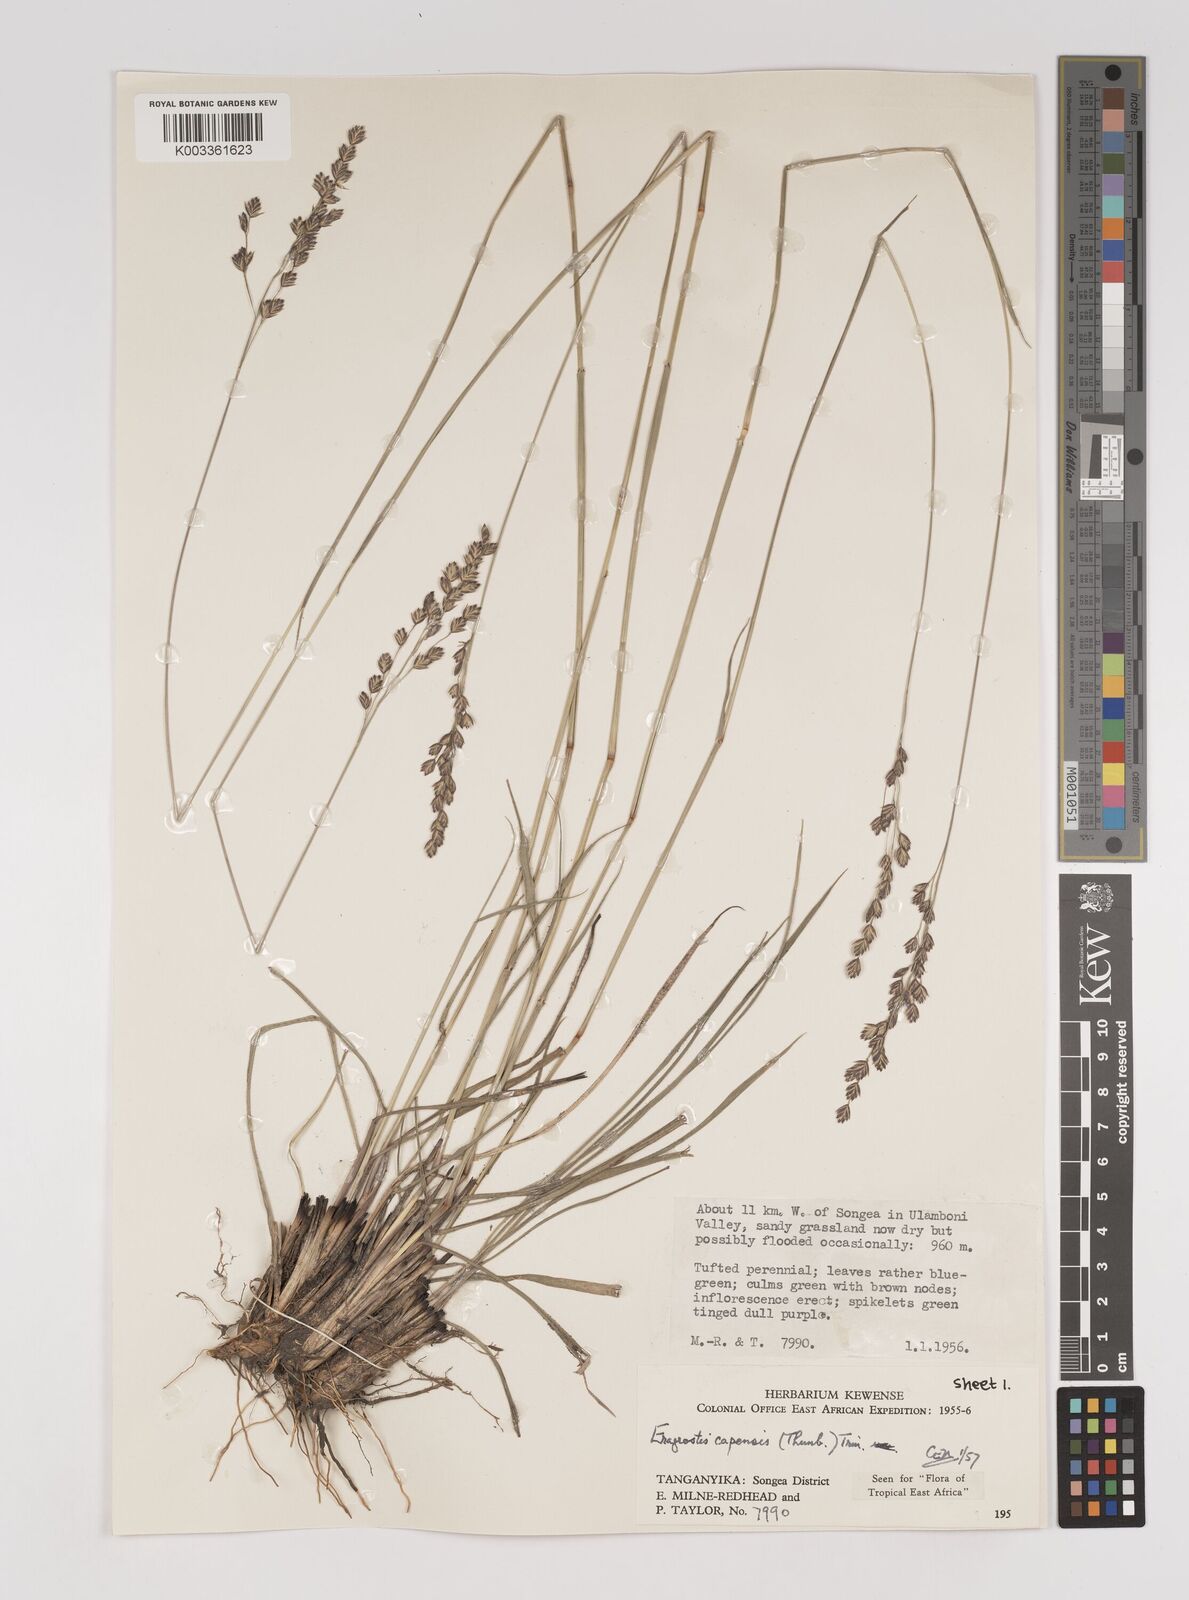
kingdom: Plantae
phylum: Tracheophyta
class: Liliopsida
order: Poales
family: Poaceae
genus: Eragrostis
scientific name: Eragrostis capensis
